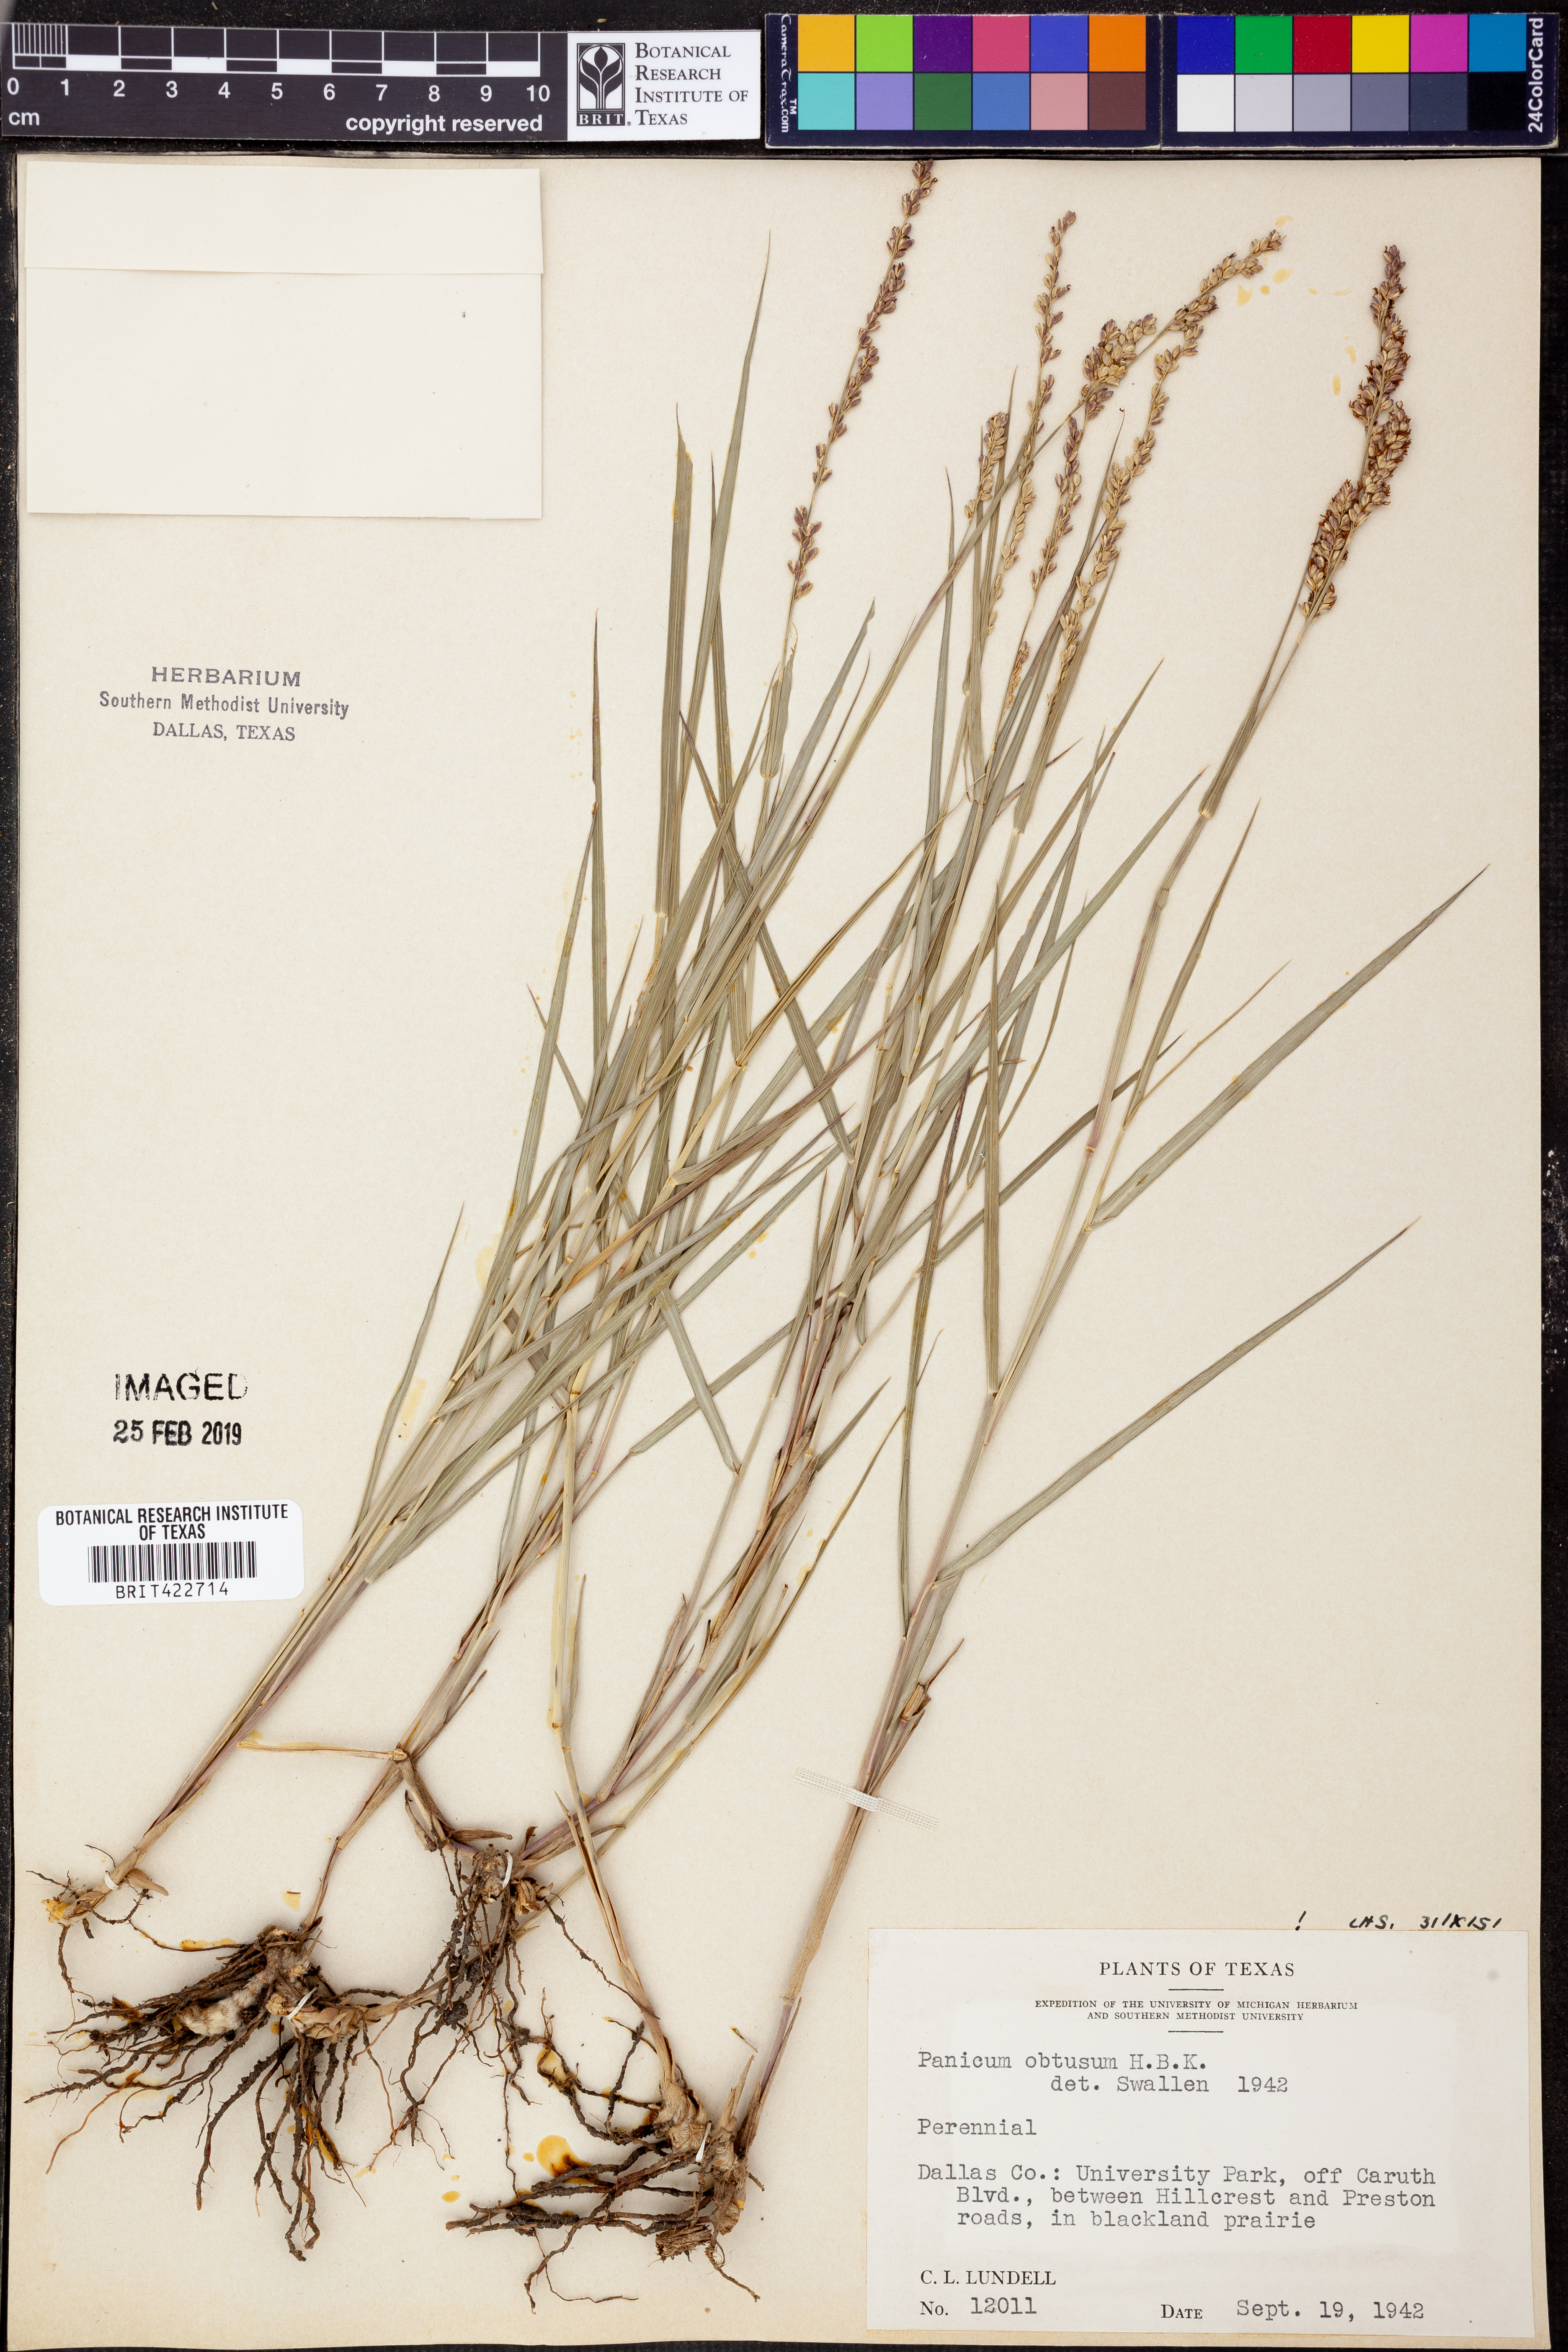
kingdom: Plantae
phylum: Tracheophyta
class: Liliopsida
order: Poales
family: Poaceae
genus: Hopia
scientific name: Hopia obtusa
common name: Vine-mesquite
